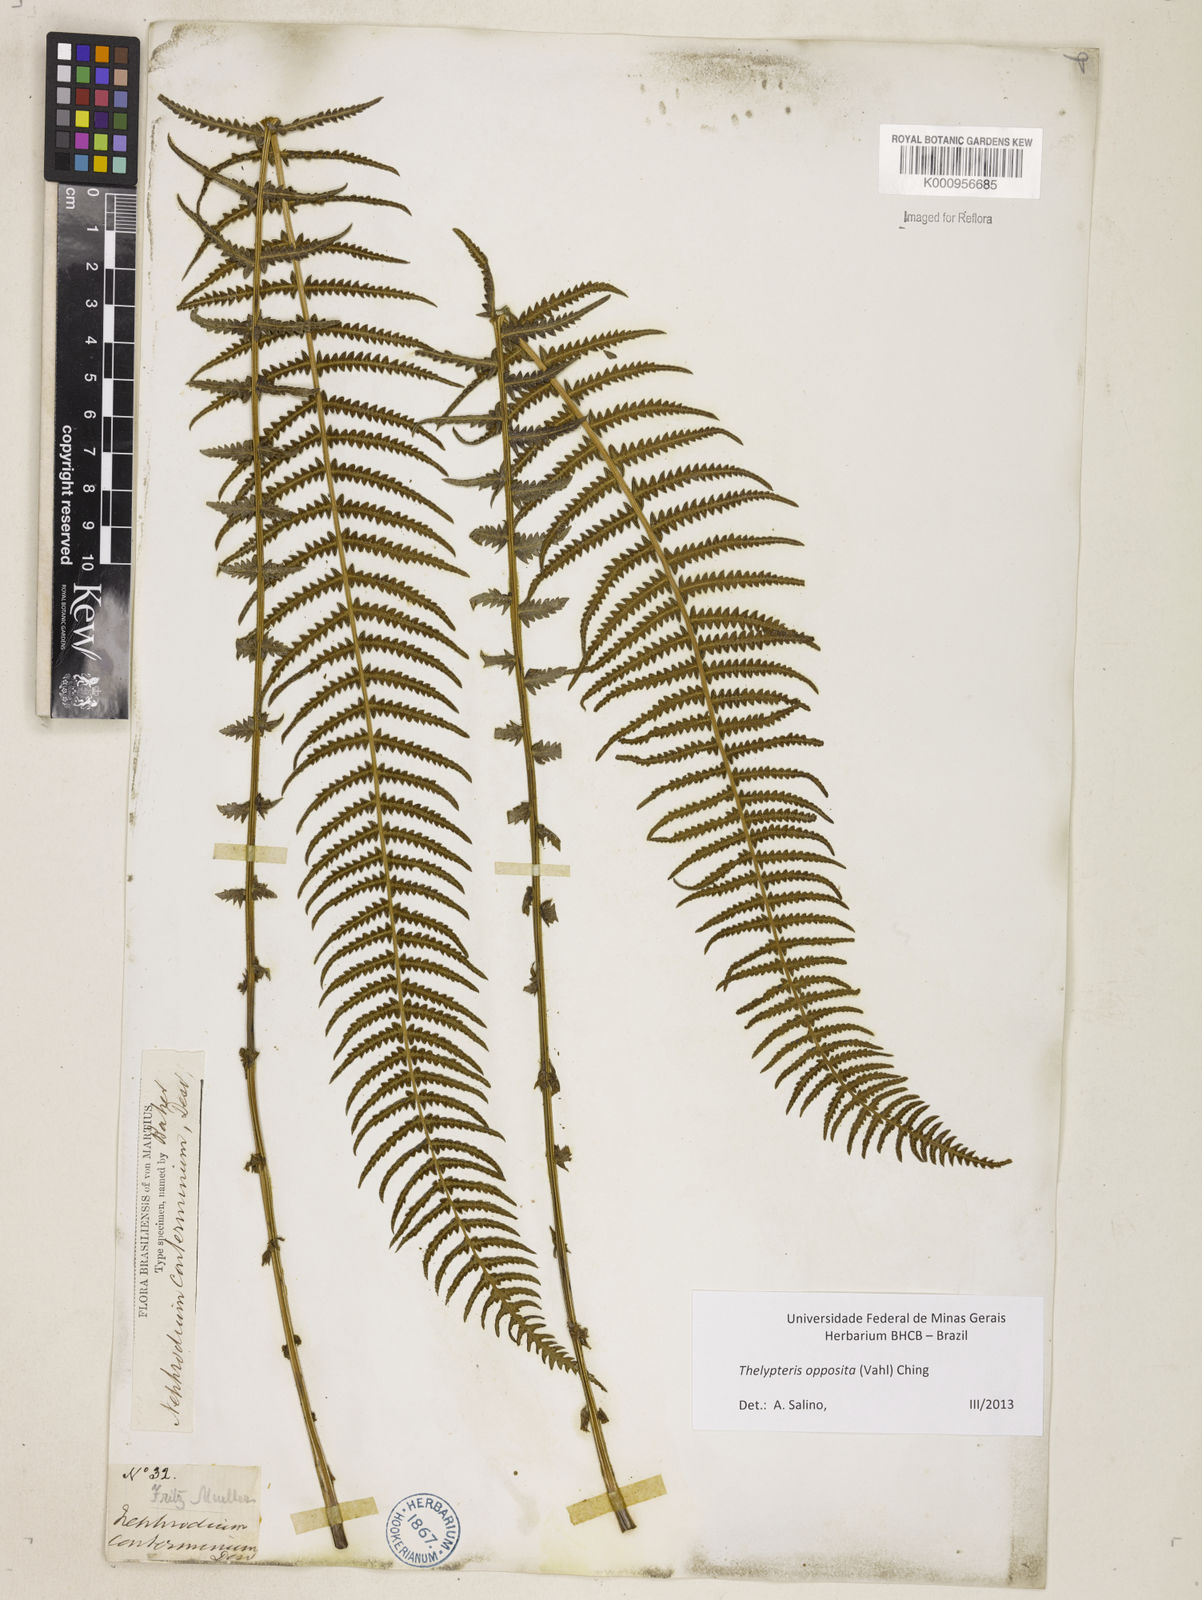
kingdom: Plantae
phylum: Tracheophyta
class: Polypodiopsida
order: Polypodiales
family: Thelypteridaceae
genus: Amauropelta
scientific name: Amauropelta opposita
